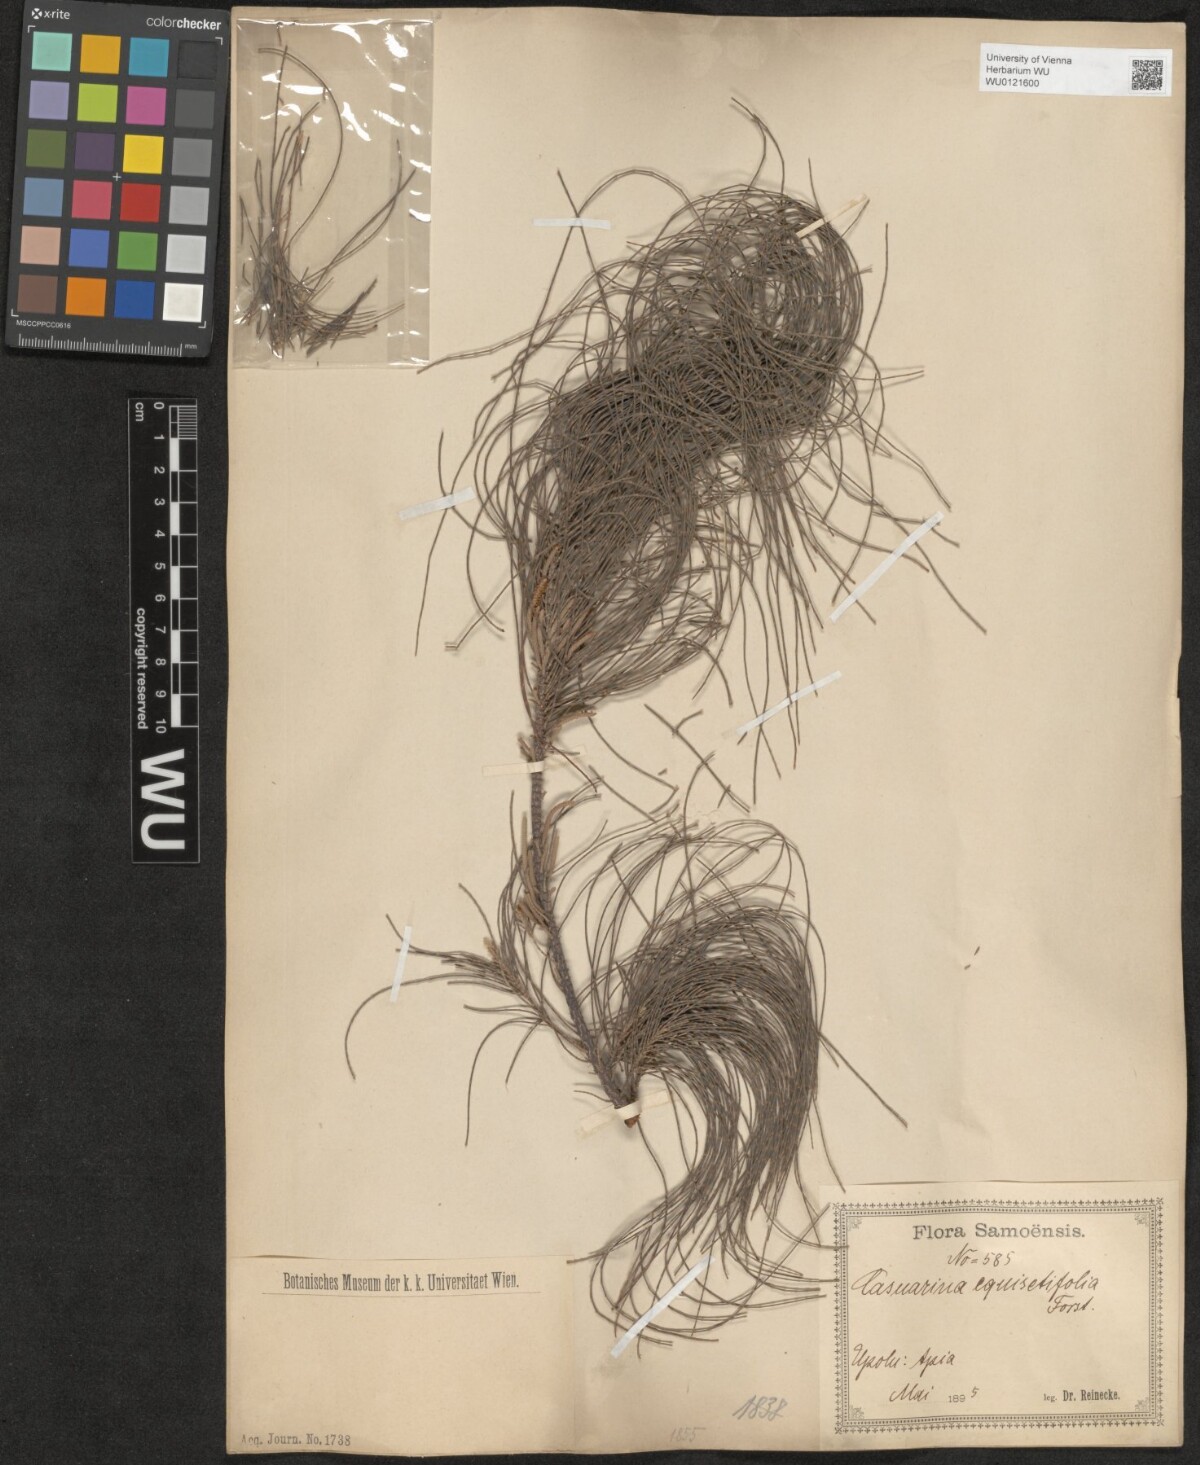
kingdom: Plantae
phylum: Tracheophyta
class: Magnoliopsida
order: Fagales
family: Casuarinaceae
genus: Casuarina
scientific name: Casuarina equisetifolia
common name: Beach sheoak
